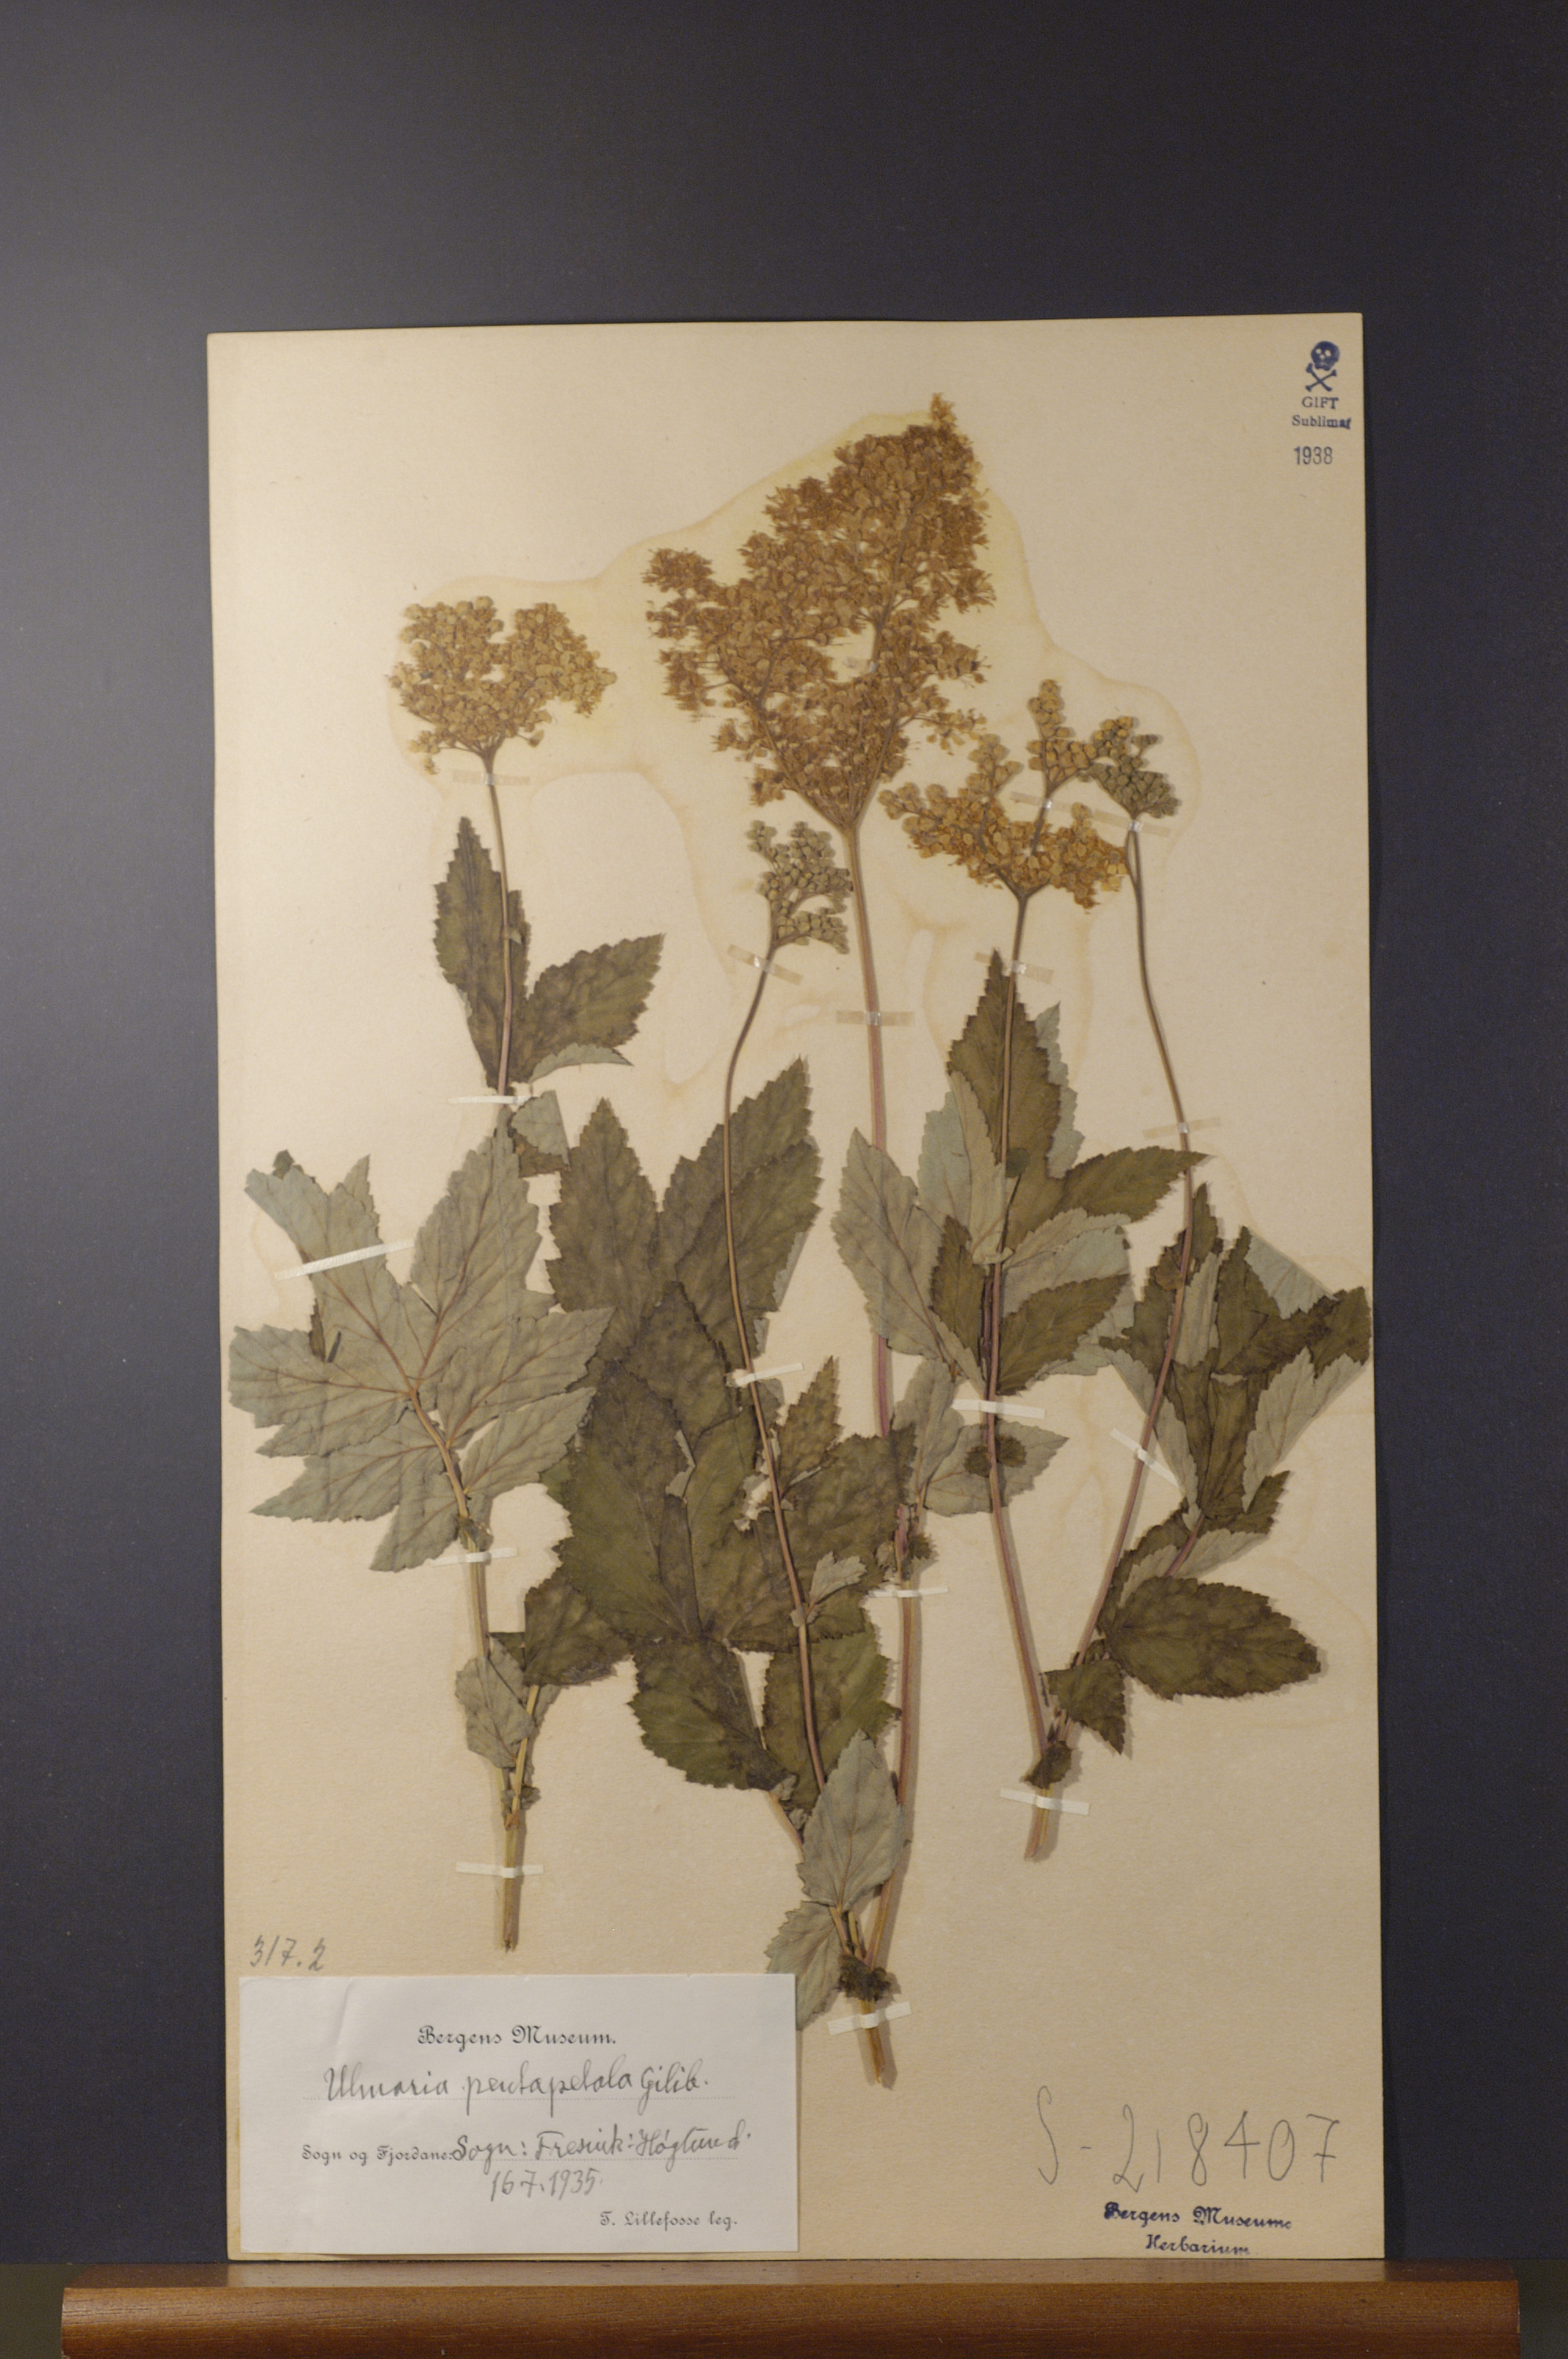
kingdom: Plantae
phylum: Tracheophyta
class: Magnoliopsida
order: Rosales
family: Rosaceae
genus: Filipendula
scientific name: Filipendula ulmaria
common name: Meadowsweet
